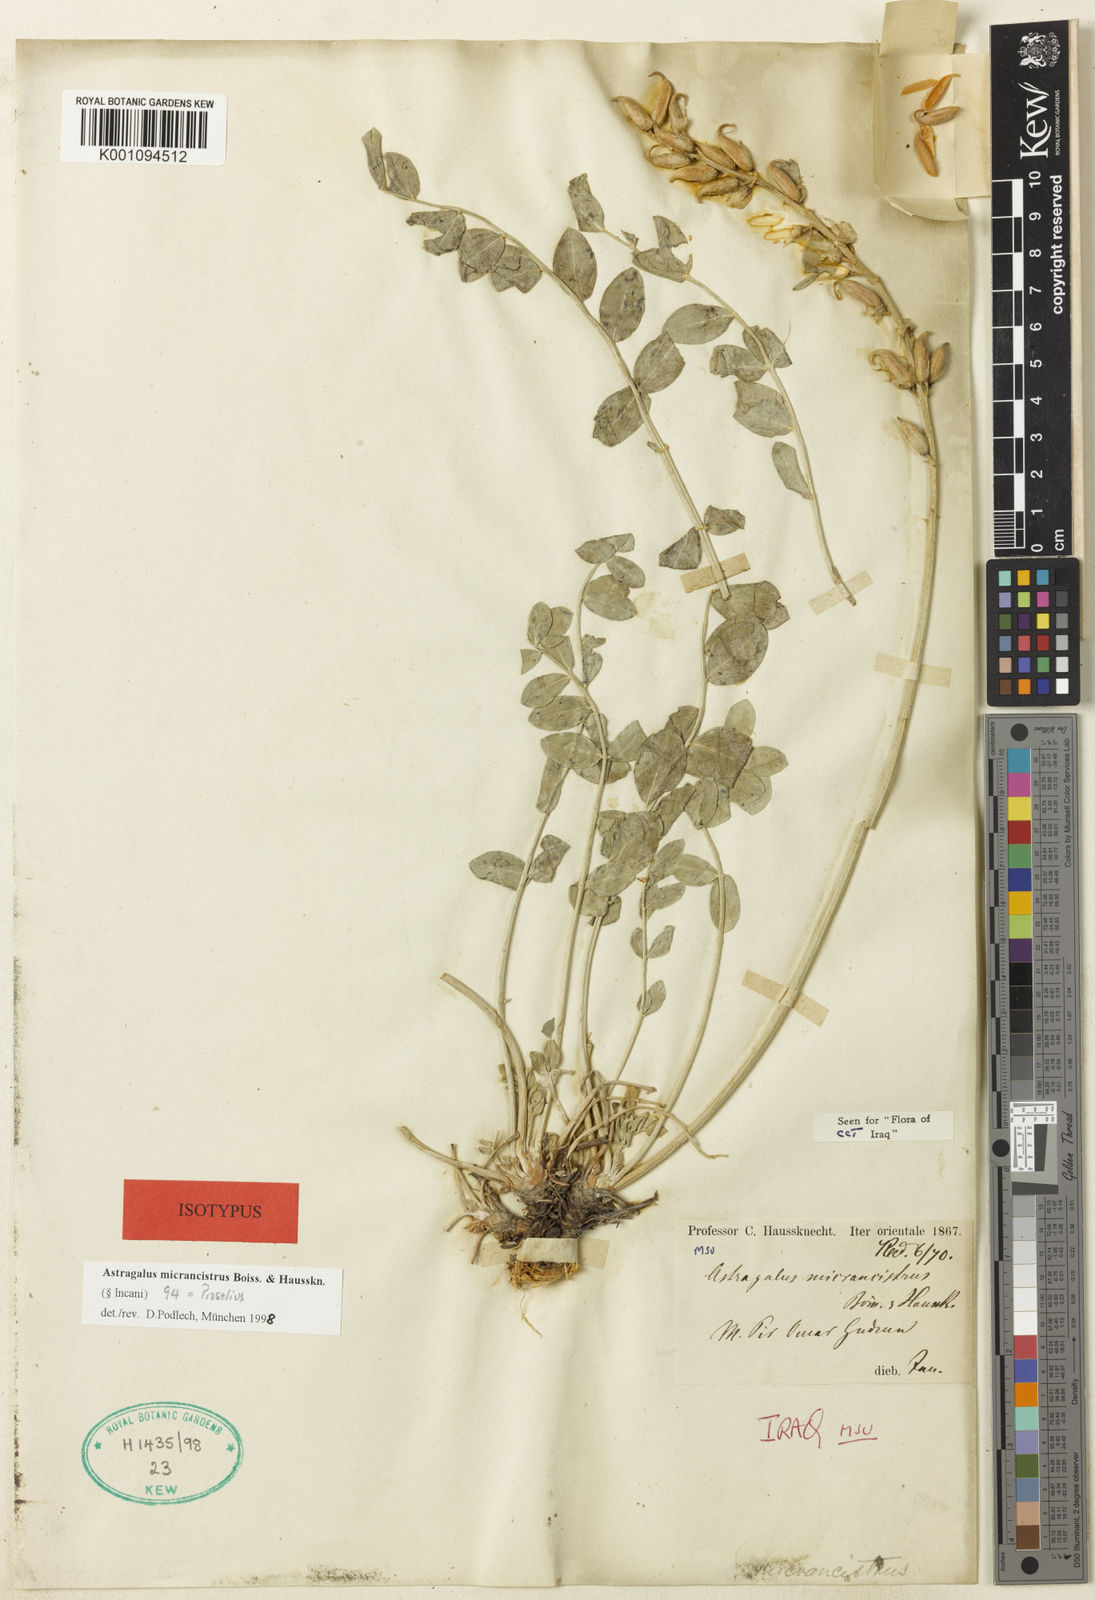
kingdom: Plantae
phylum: Tracheophyta
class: Magnoliopsida
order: Fabales
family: Fabaceae
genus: Astragalus
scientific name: Astragalus
